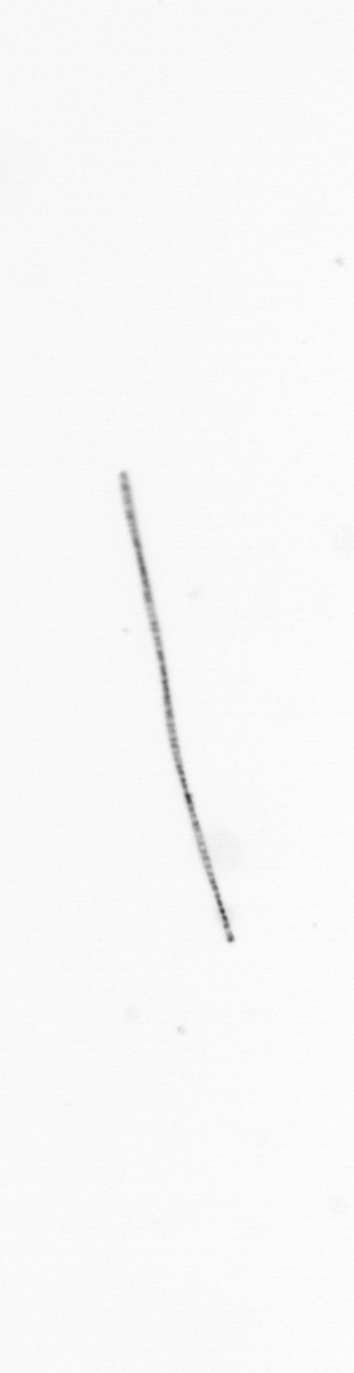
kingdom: Chromista
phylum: Ochrophyta
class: Bacillariophyceae
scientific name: Bacillariophyceae
